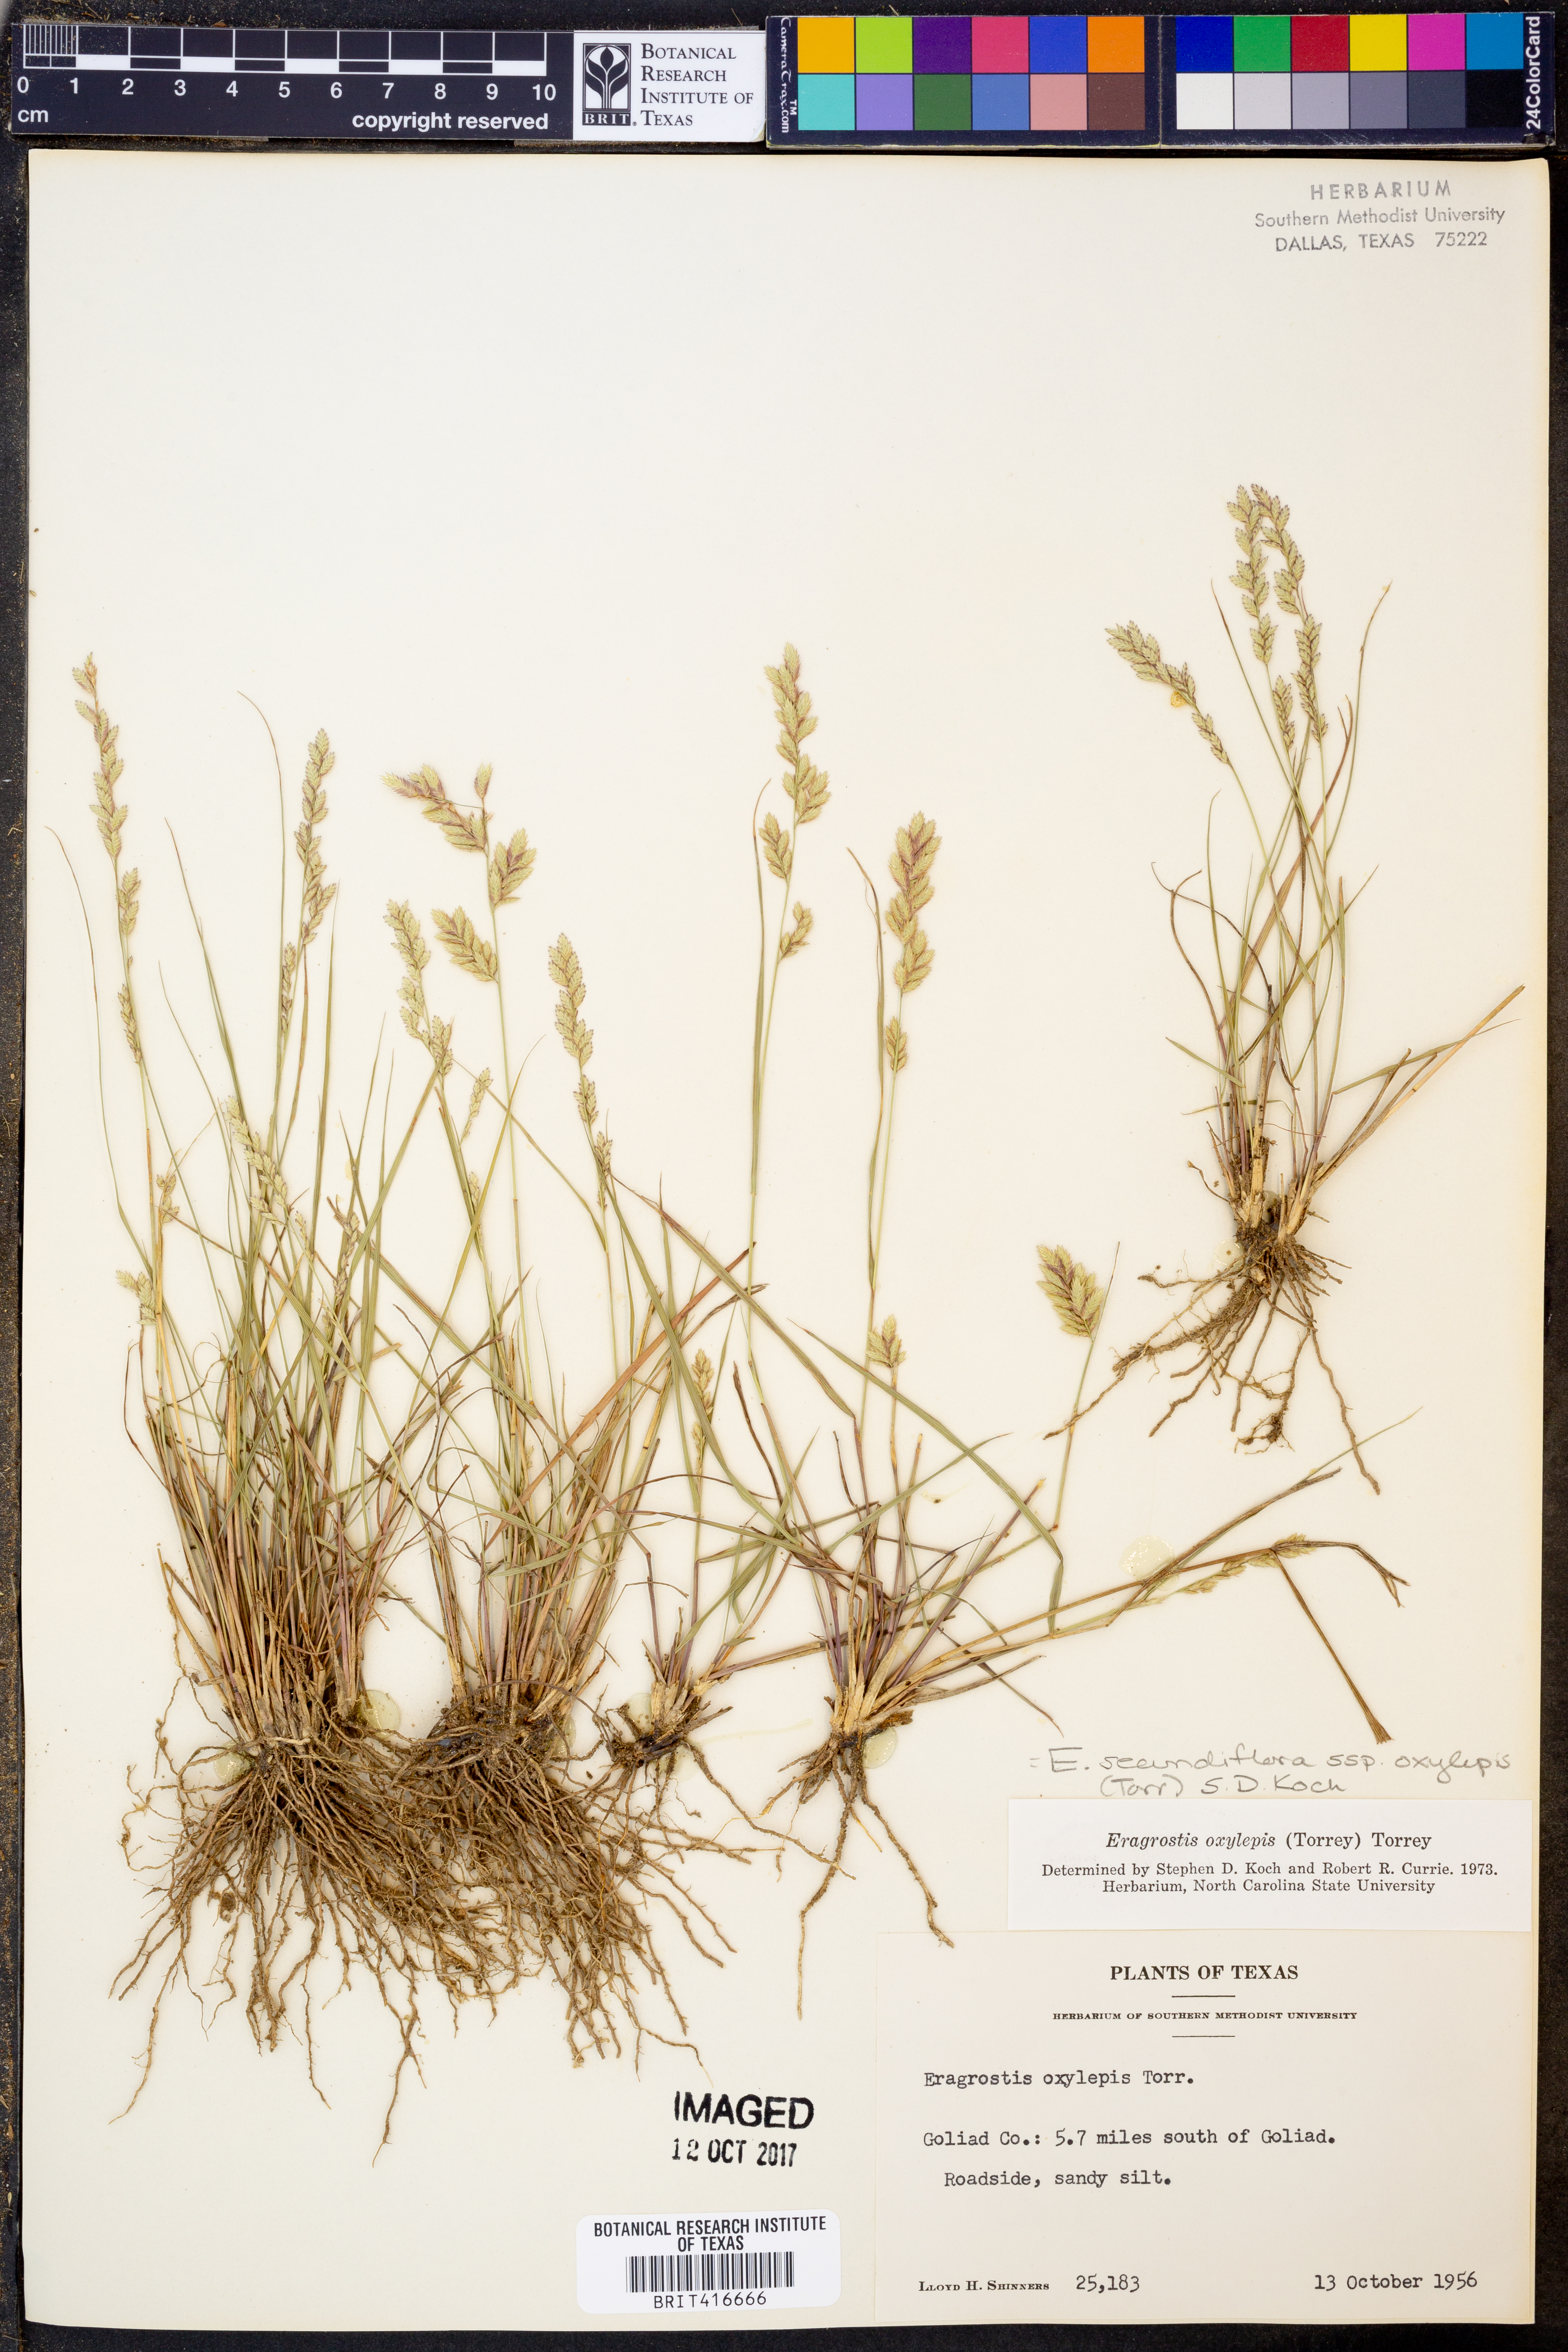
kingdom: Plantae
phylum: Tracheophyta
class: Liliopsida
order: Poales
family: Poaceae
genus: Eragrostis
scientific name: Eragrostis secundiflora
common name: Red love grass
